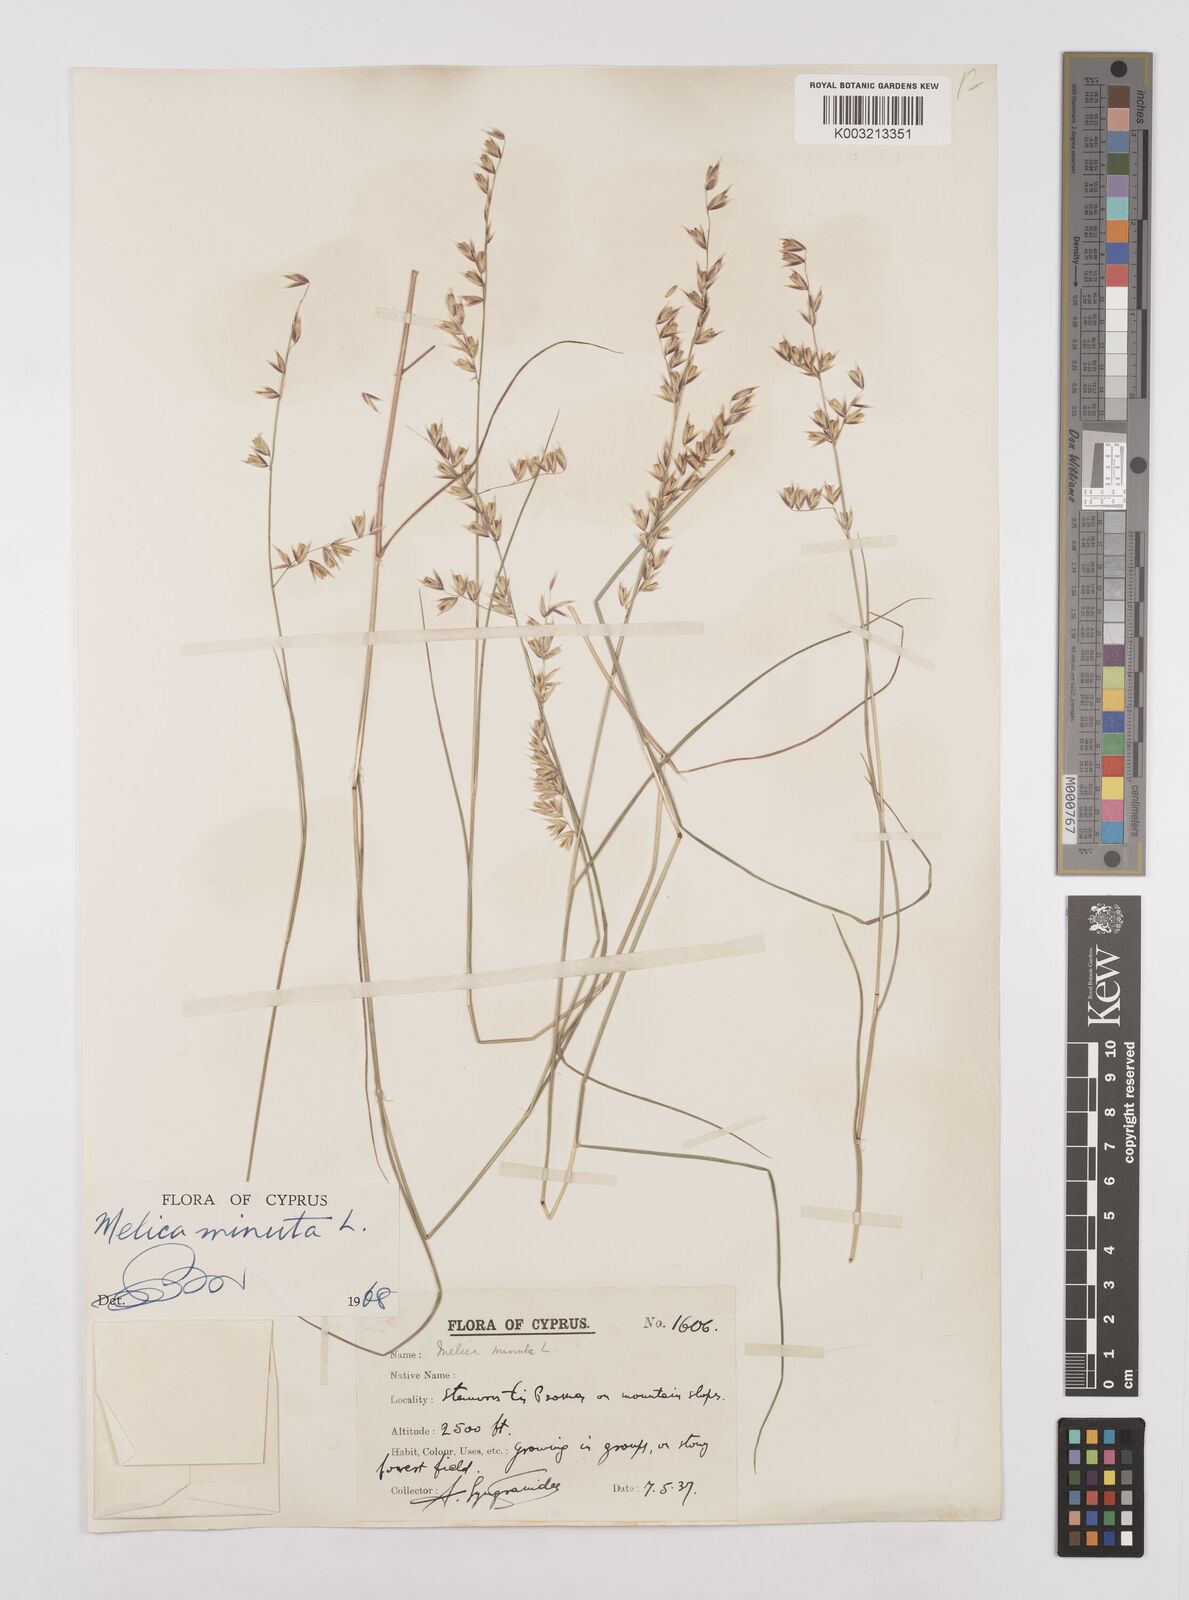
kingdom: Plantae
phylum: Tracheophyta
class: Liliopsida
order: Poales
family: Poaceae
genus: Melica
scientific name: Melica minuta
